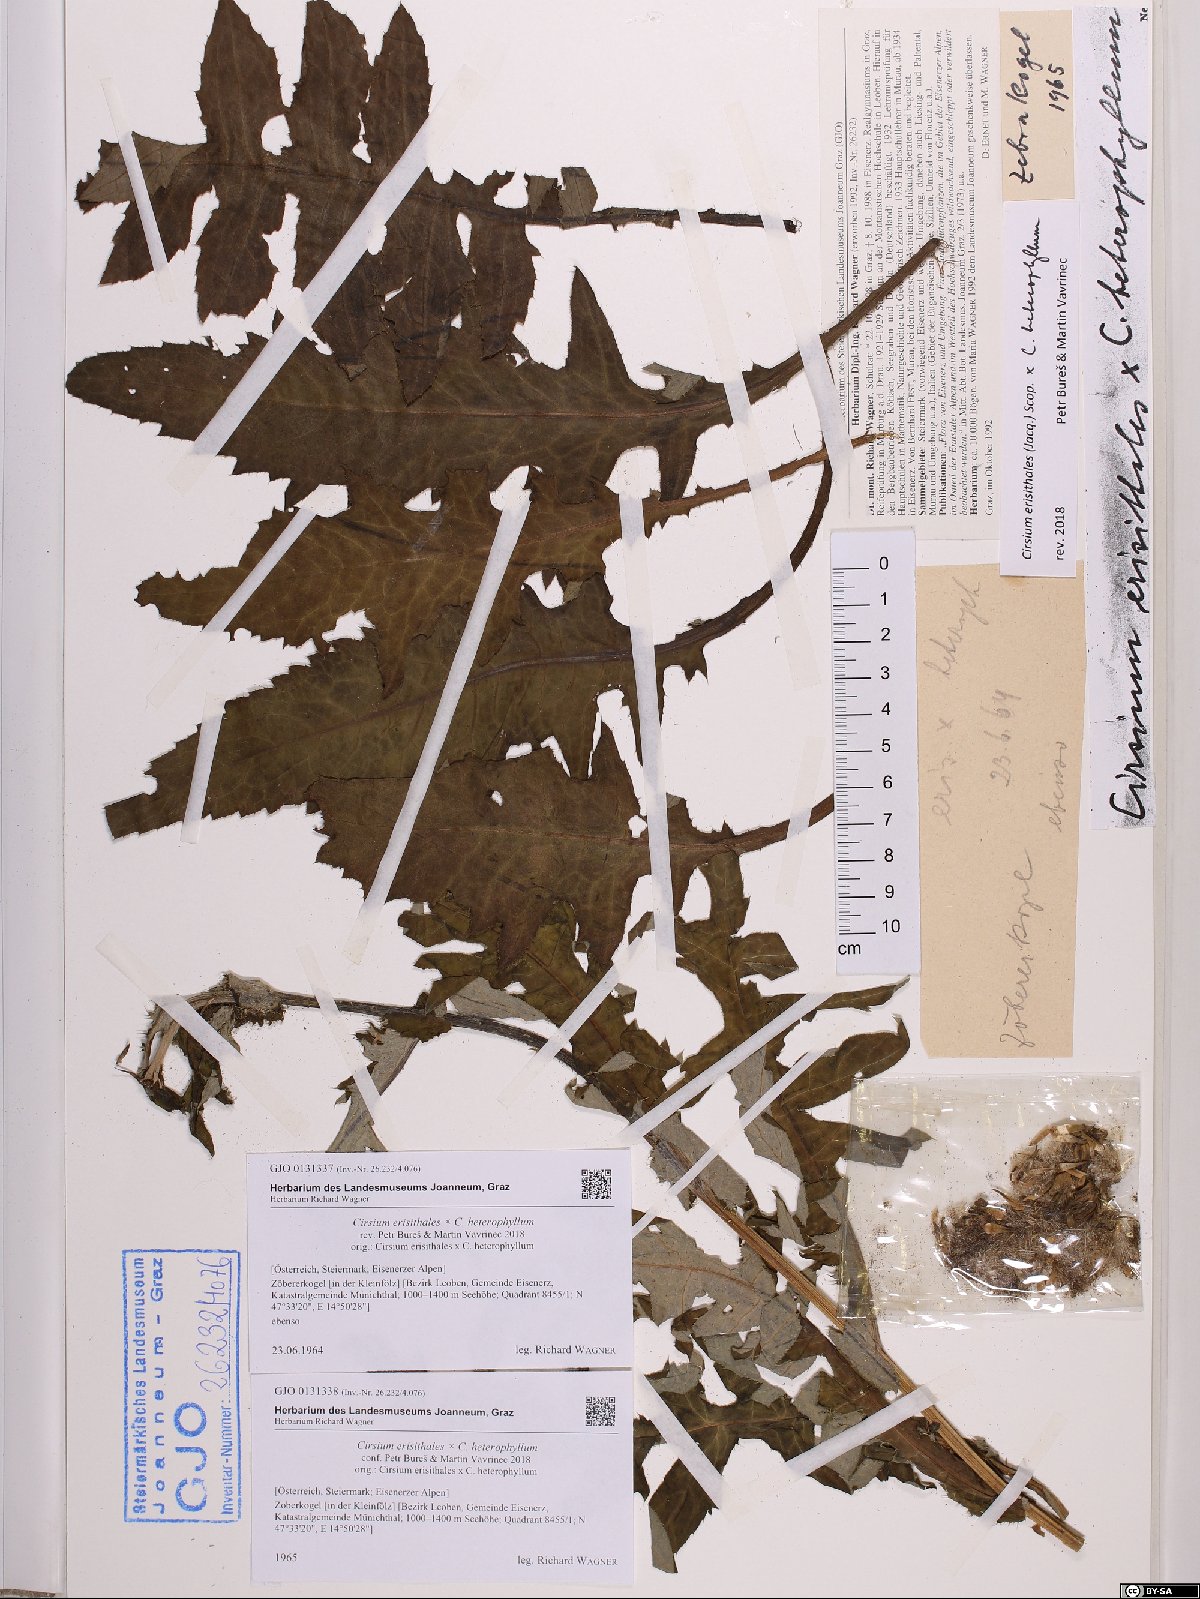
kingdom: Plantae
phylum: Tracheophyta
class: Magnoliopsida
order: Asterales
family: Asteraceae
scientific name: Asteraceae
